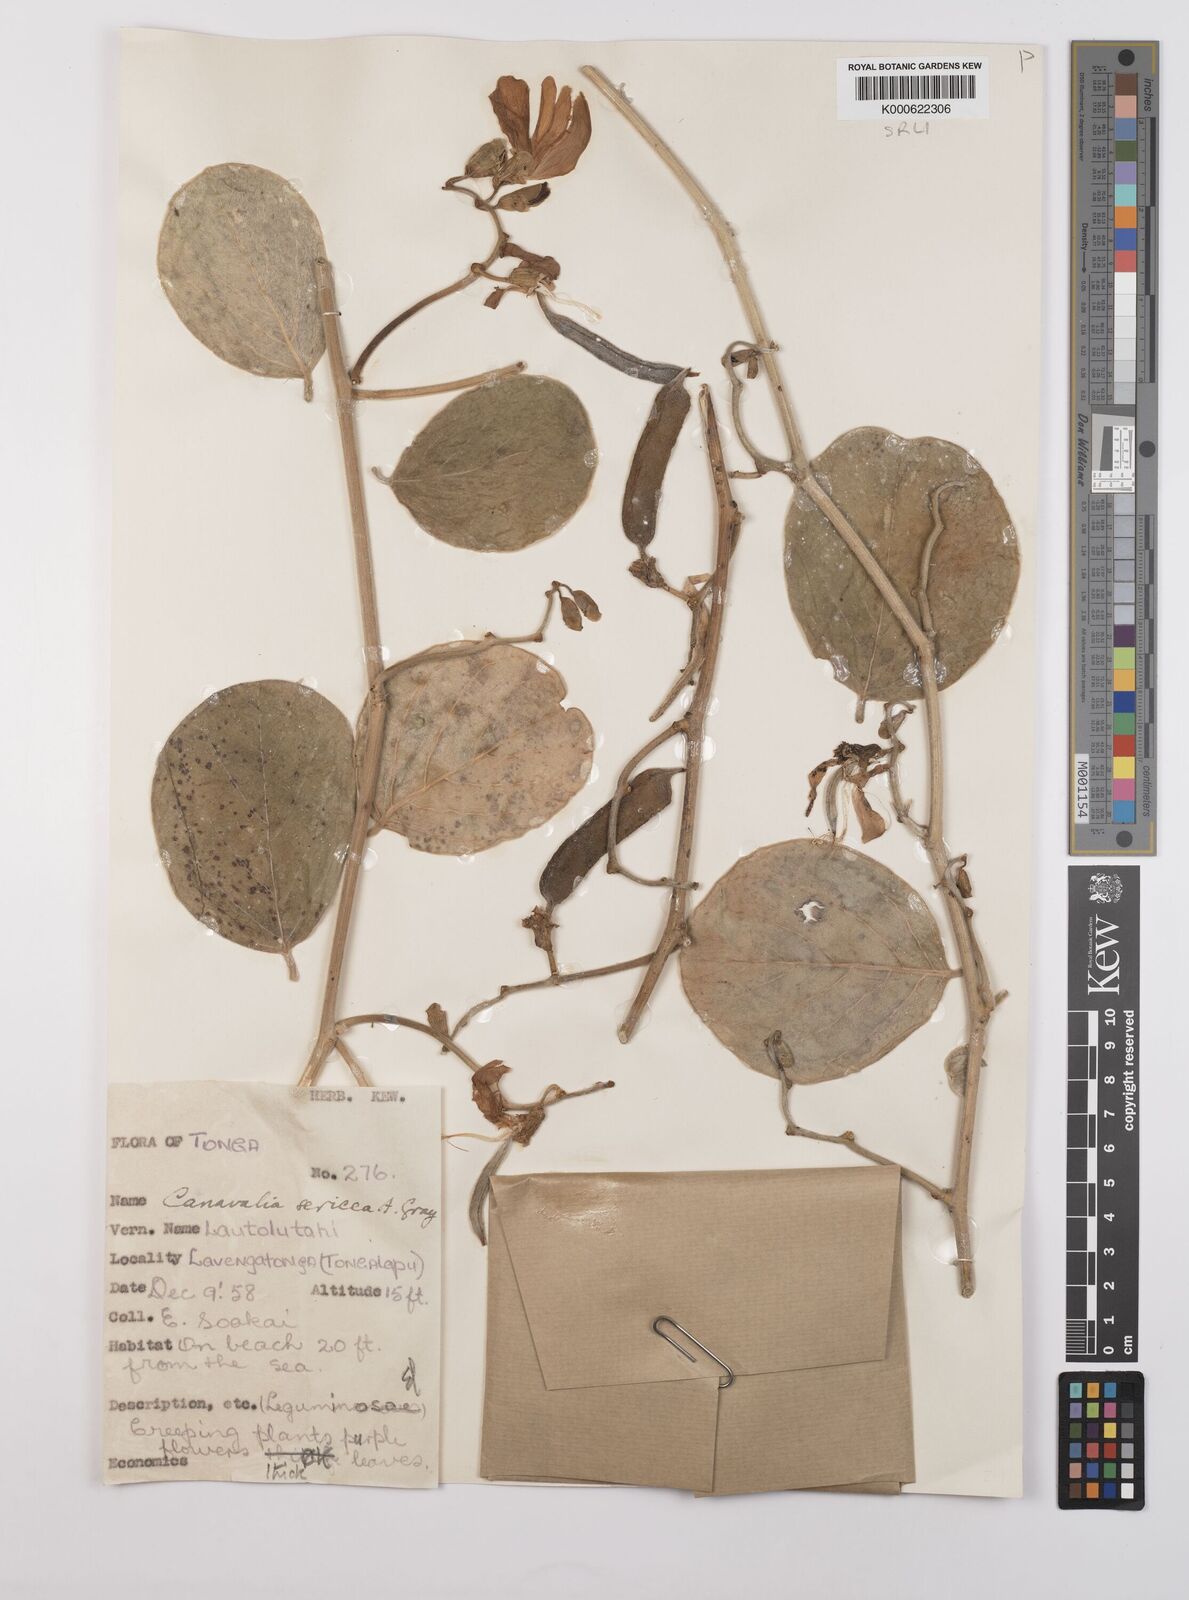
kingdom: Plantae
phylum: Tracheophyta
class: Magnoliopsida
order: Fabales
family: Fabaceae
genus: Canavalia
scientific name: Canavalia sericea
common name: Silky jackbean
